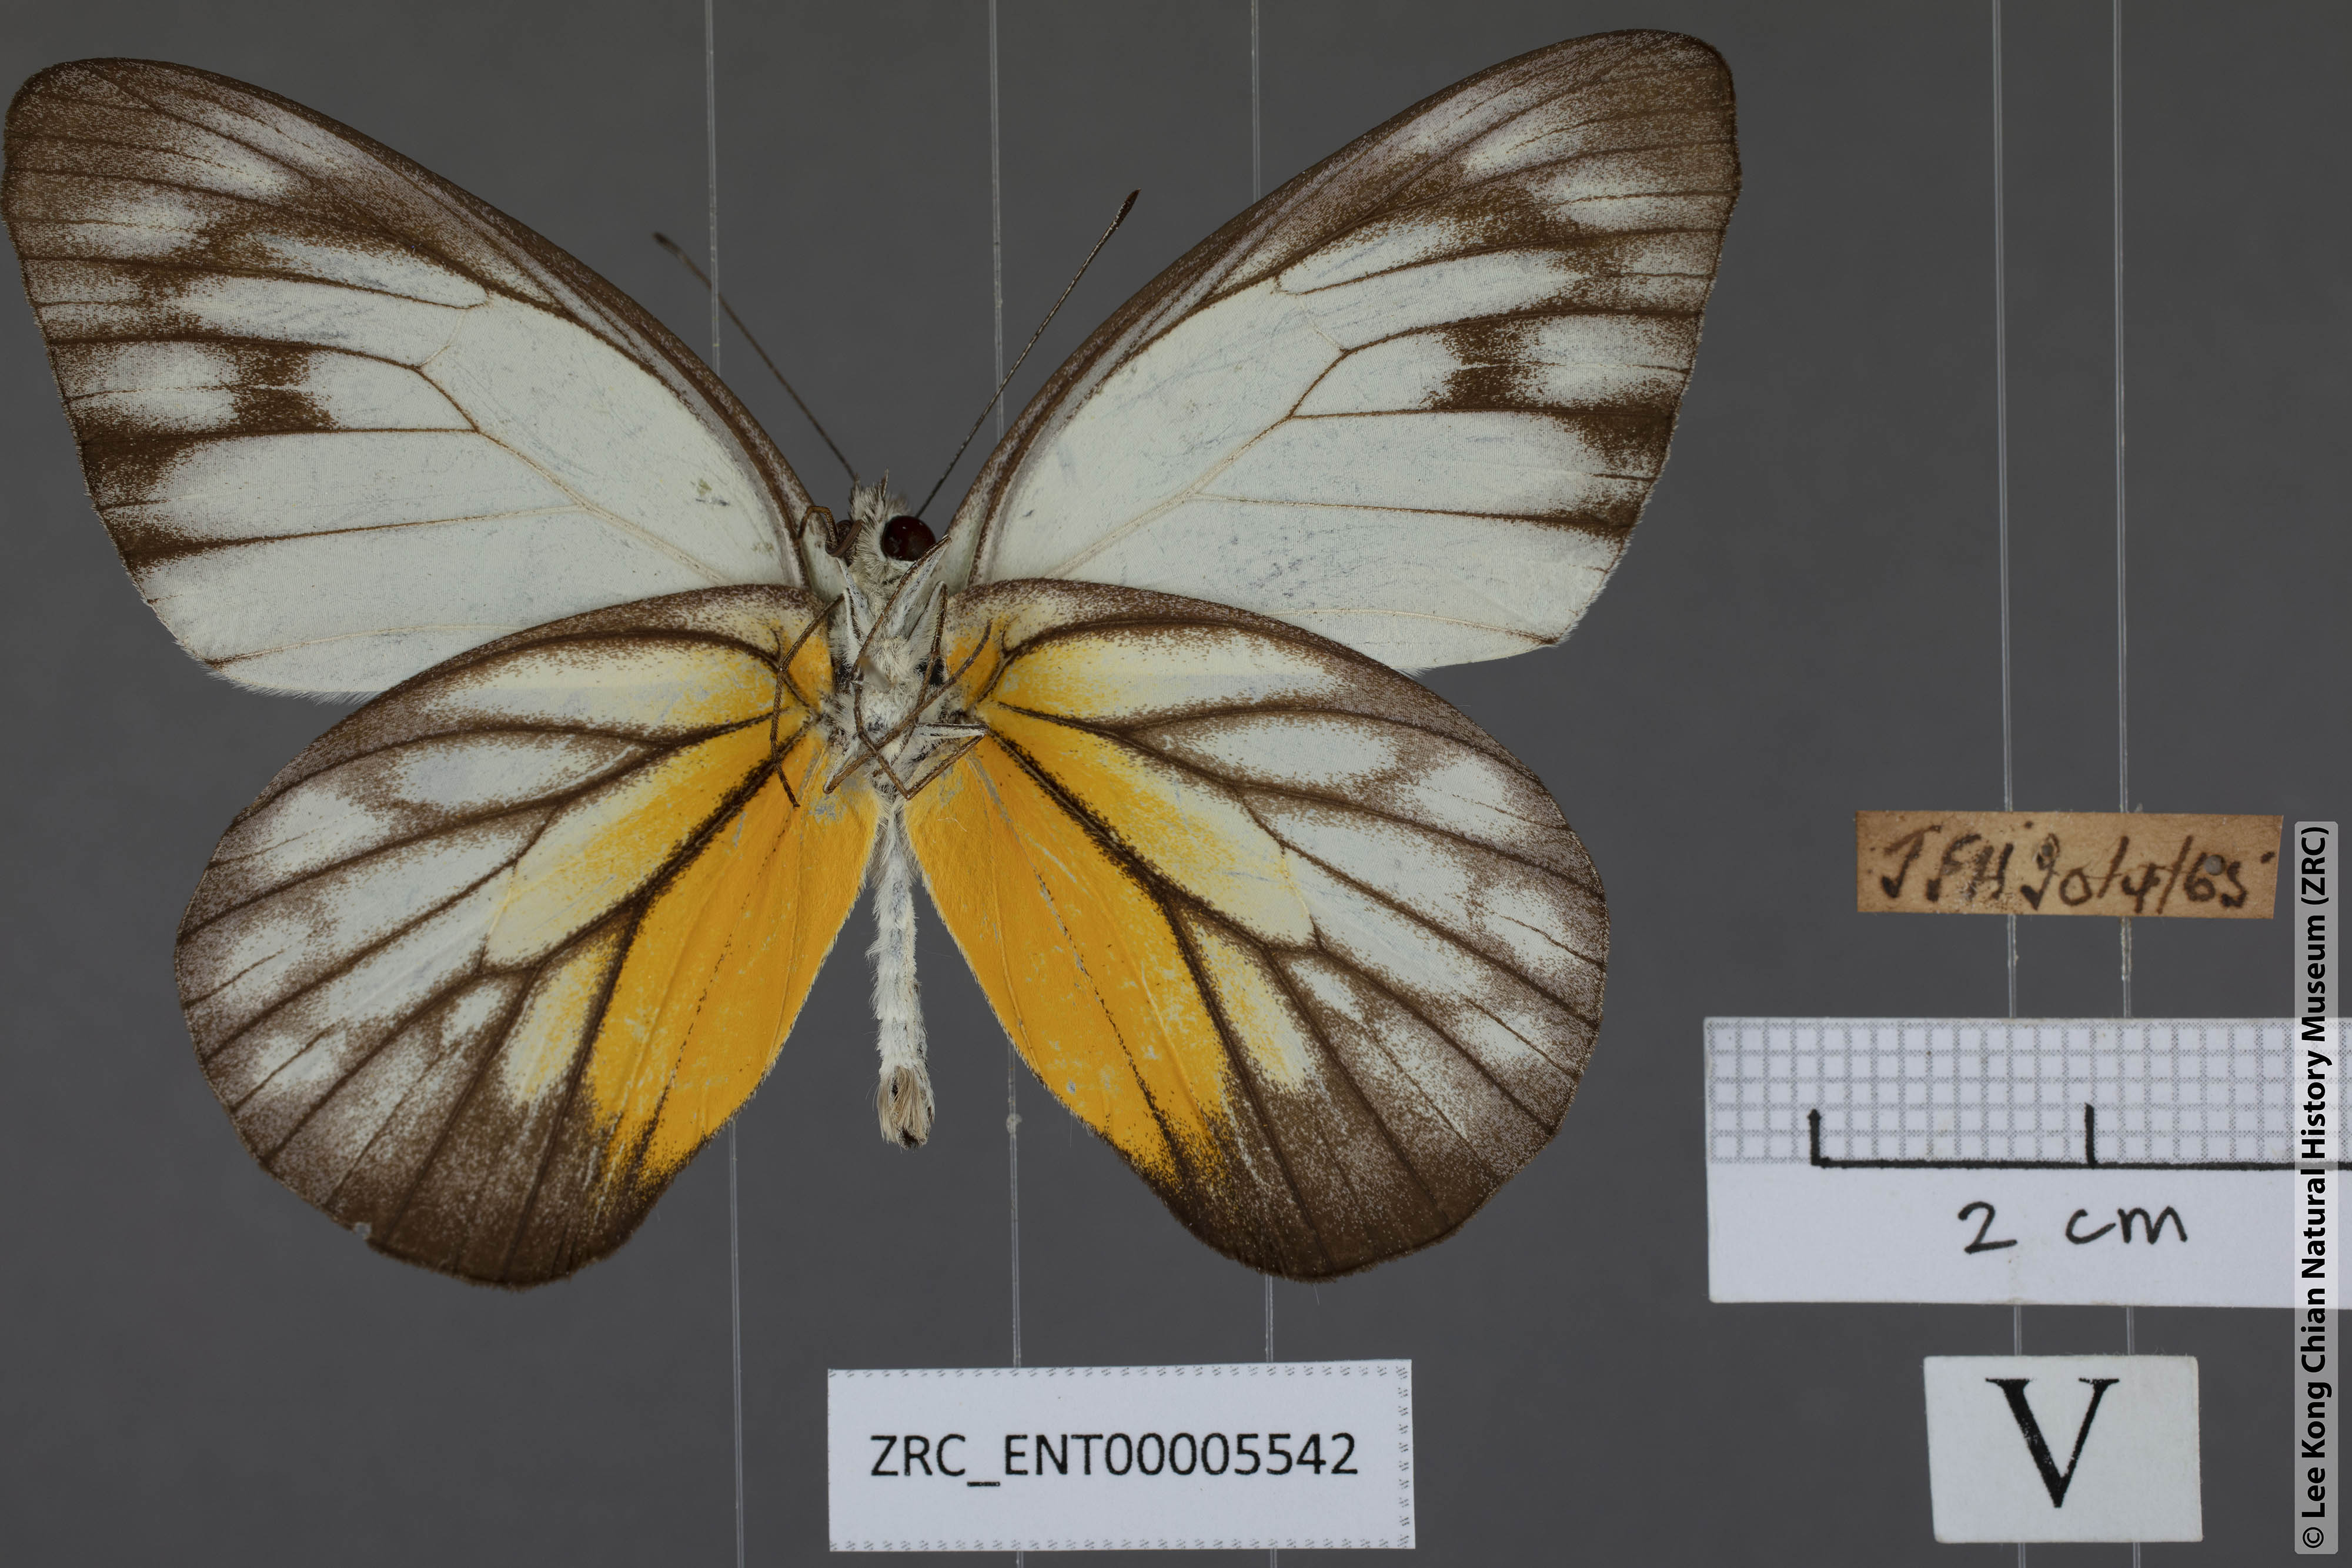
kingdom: Animalia
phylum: Arthropoda
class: Insecta
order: Lepidoptera
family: Pieridae
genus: Appias
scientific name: Appias cardena
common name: Yellow puffin
